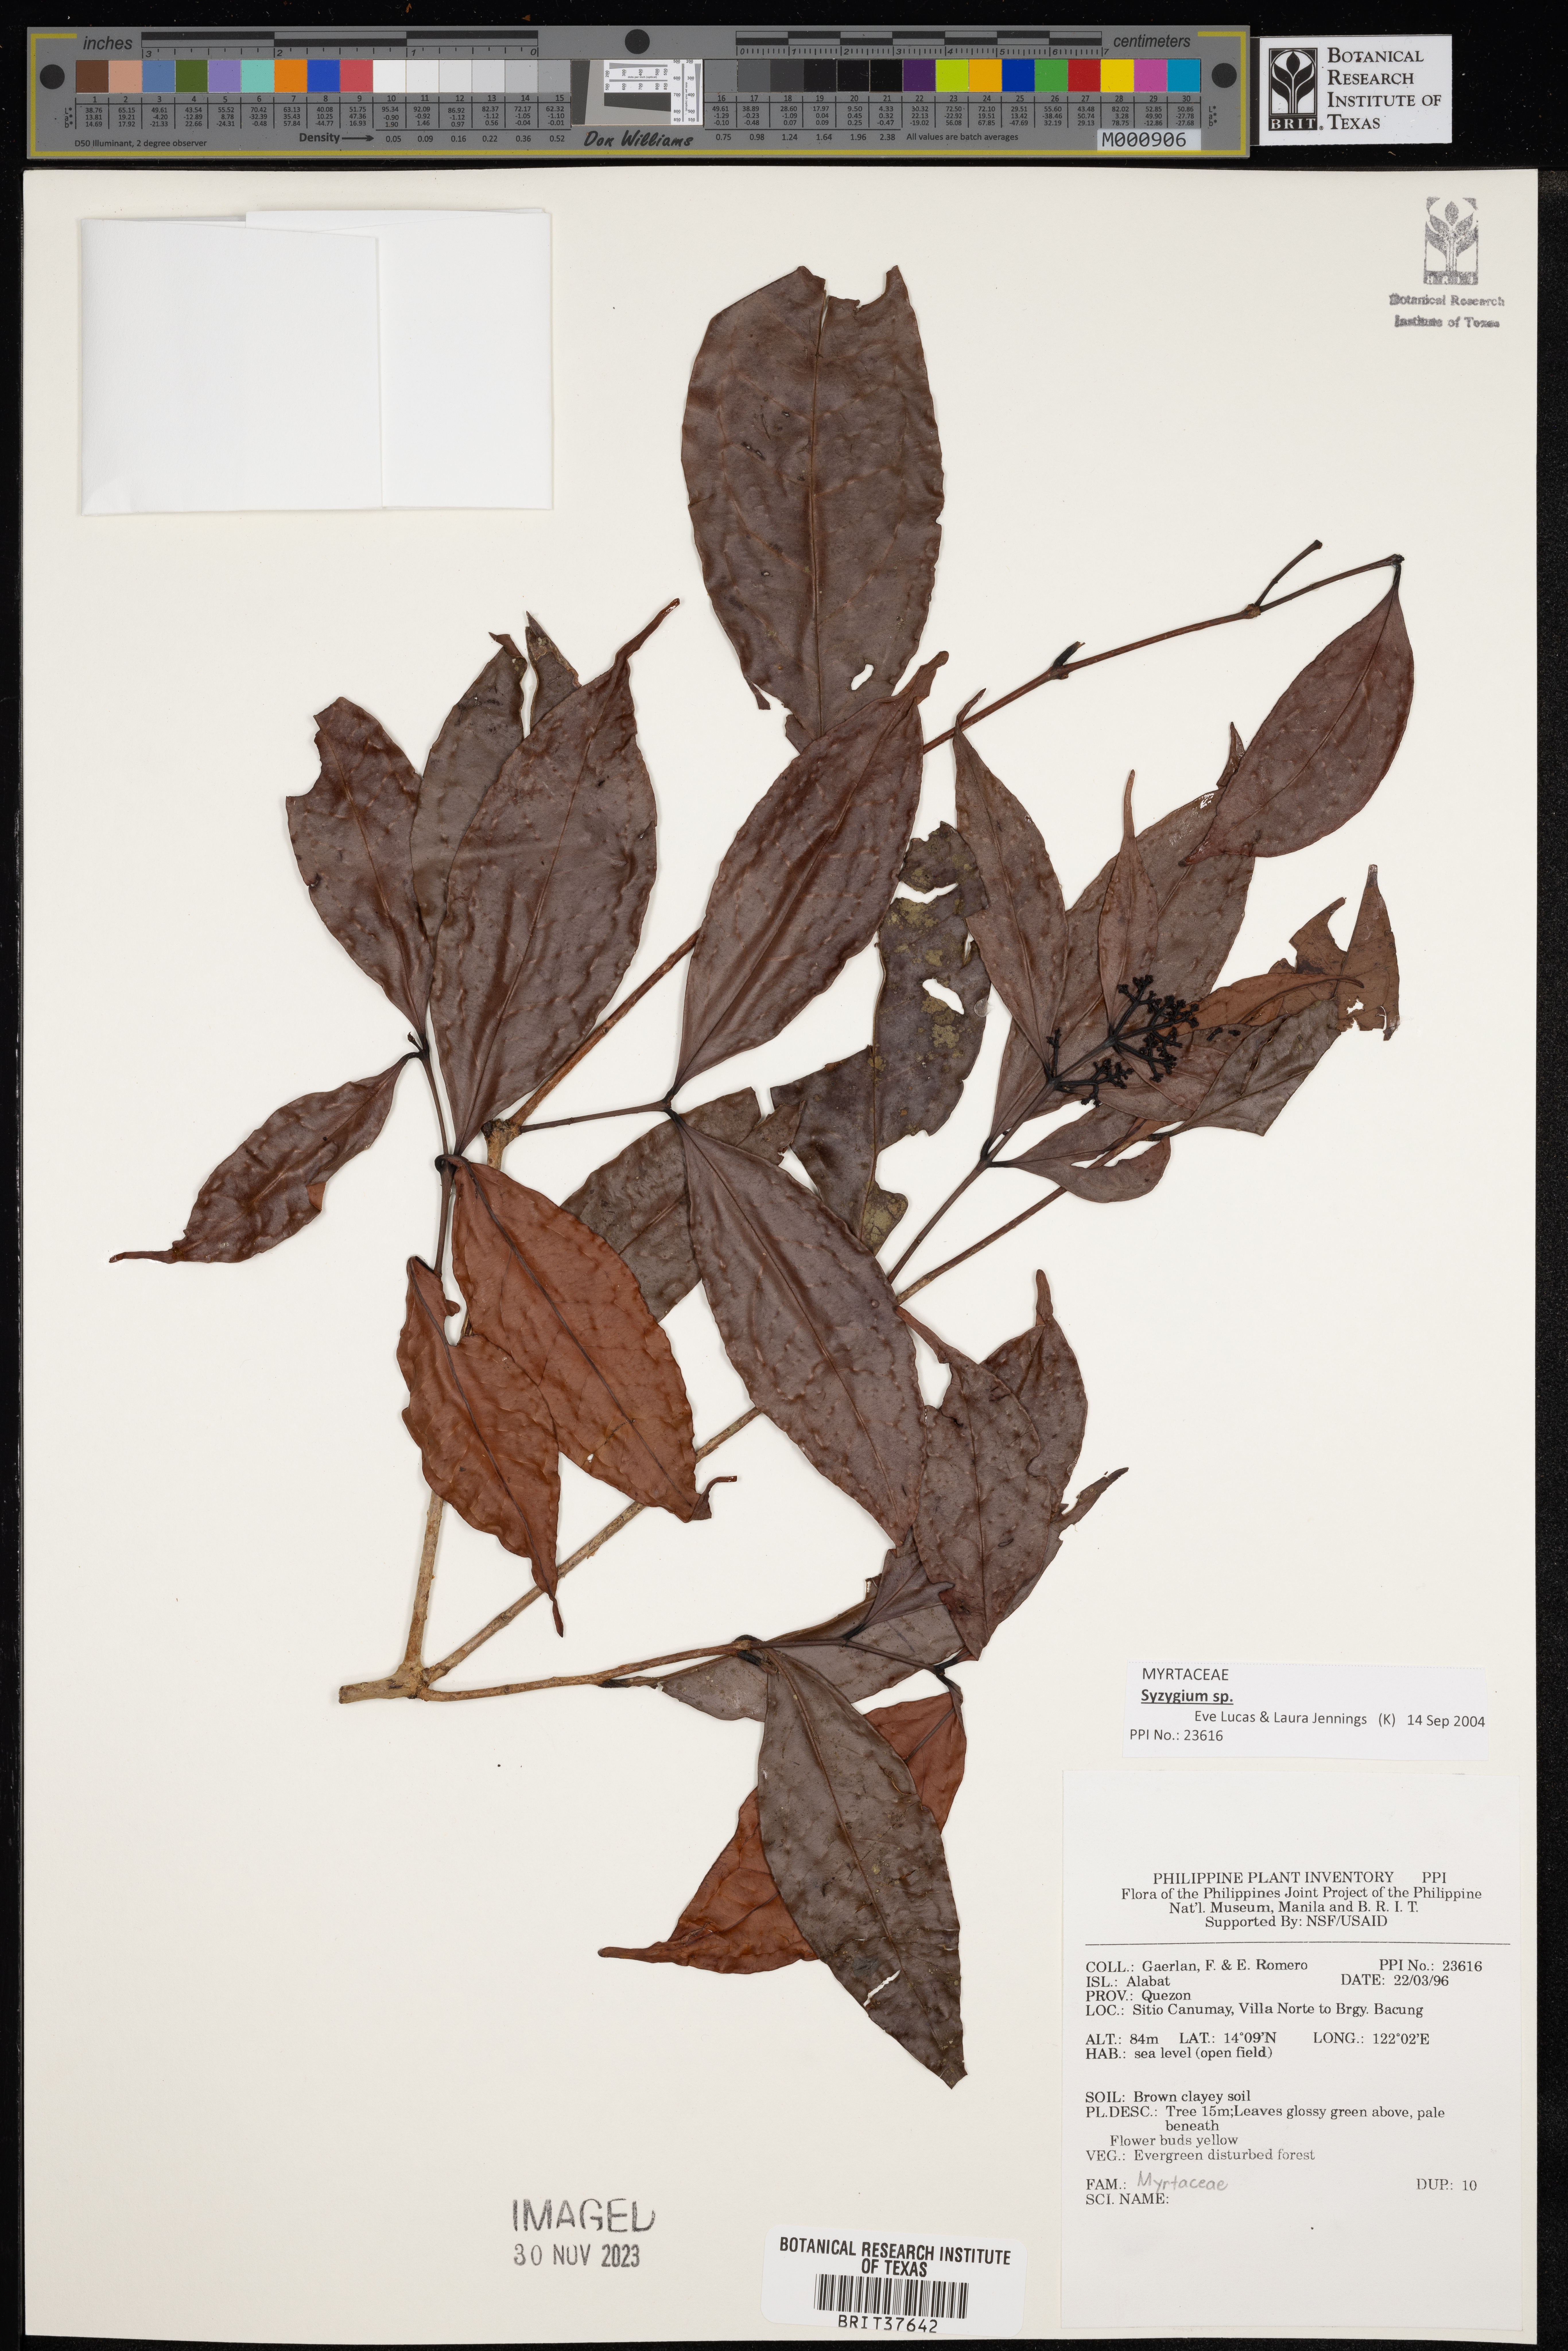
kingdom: Plantae
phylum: Tracheophyta
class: Magnoliopsida
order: Myrtales
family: Myrtaceae
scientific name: Myrtaceae
